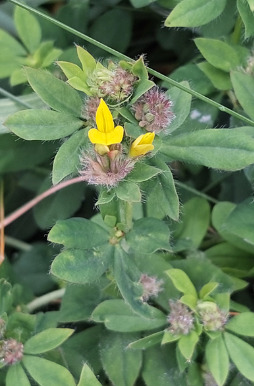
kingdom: Plantae
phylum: Tracheophyta
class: Magnoliopsida
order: Fabales
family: Fabaceae
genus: Lotus
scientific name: Lotus
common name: Kællingetandslægten
